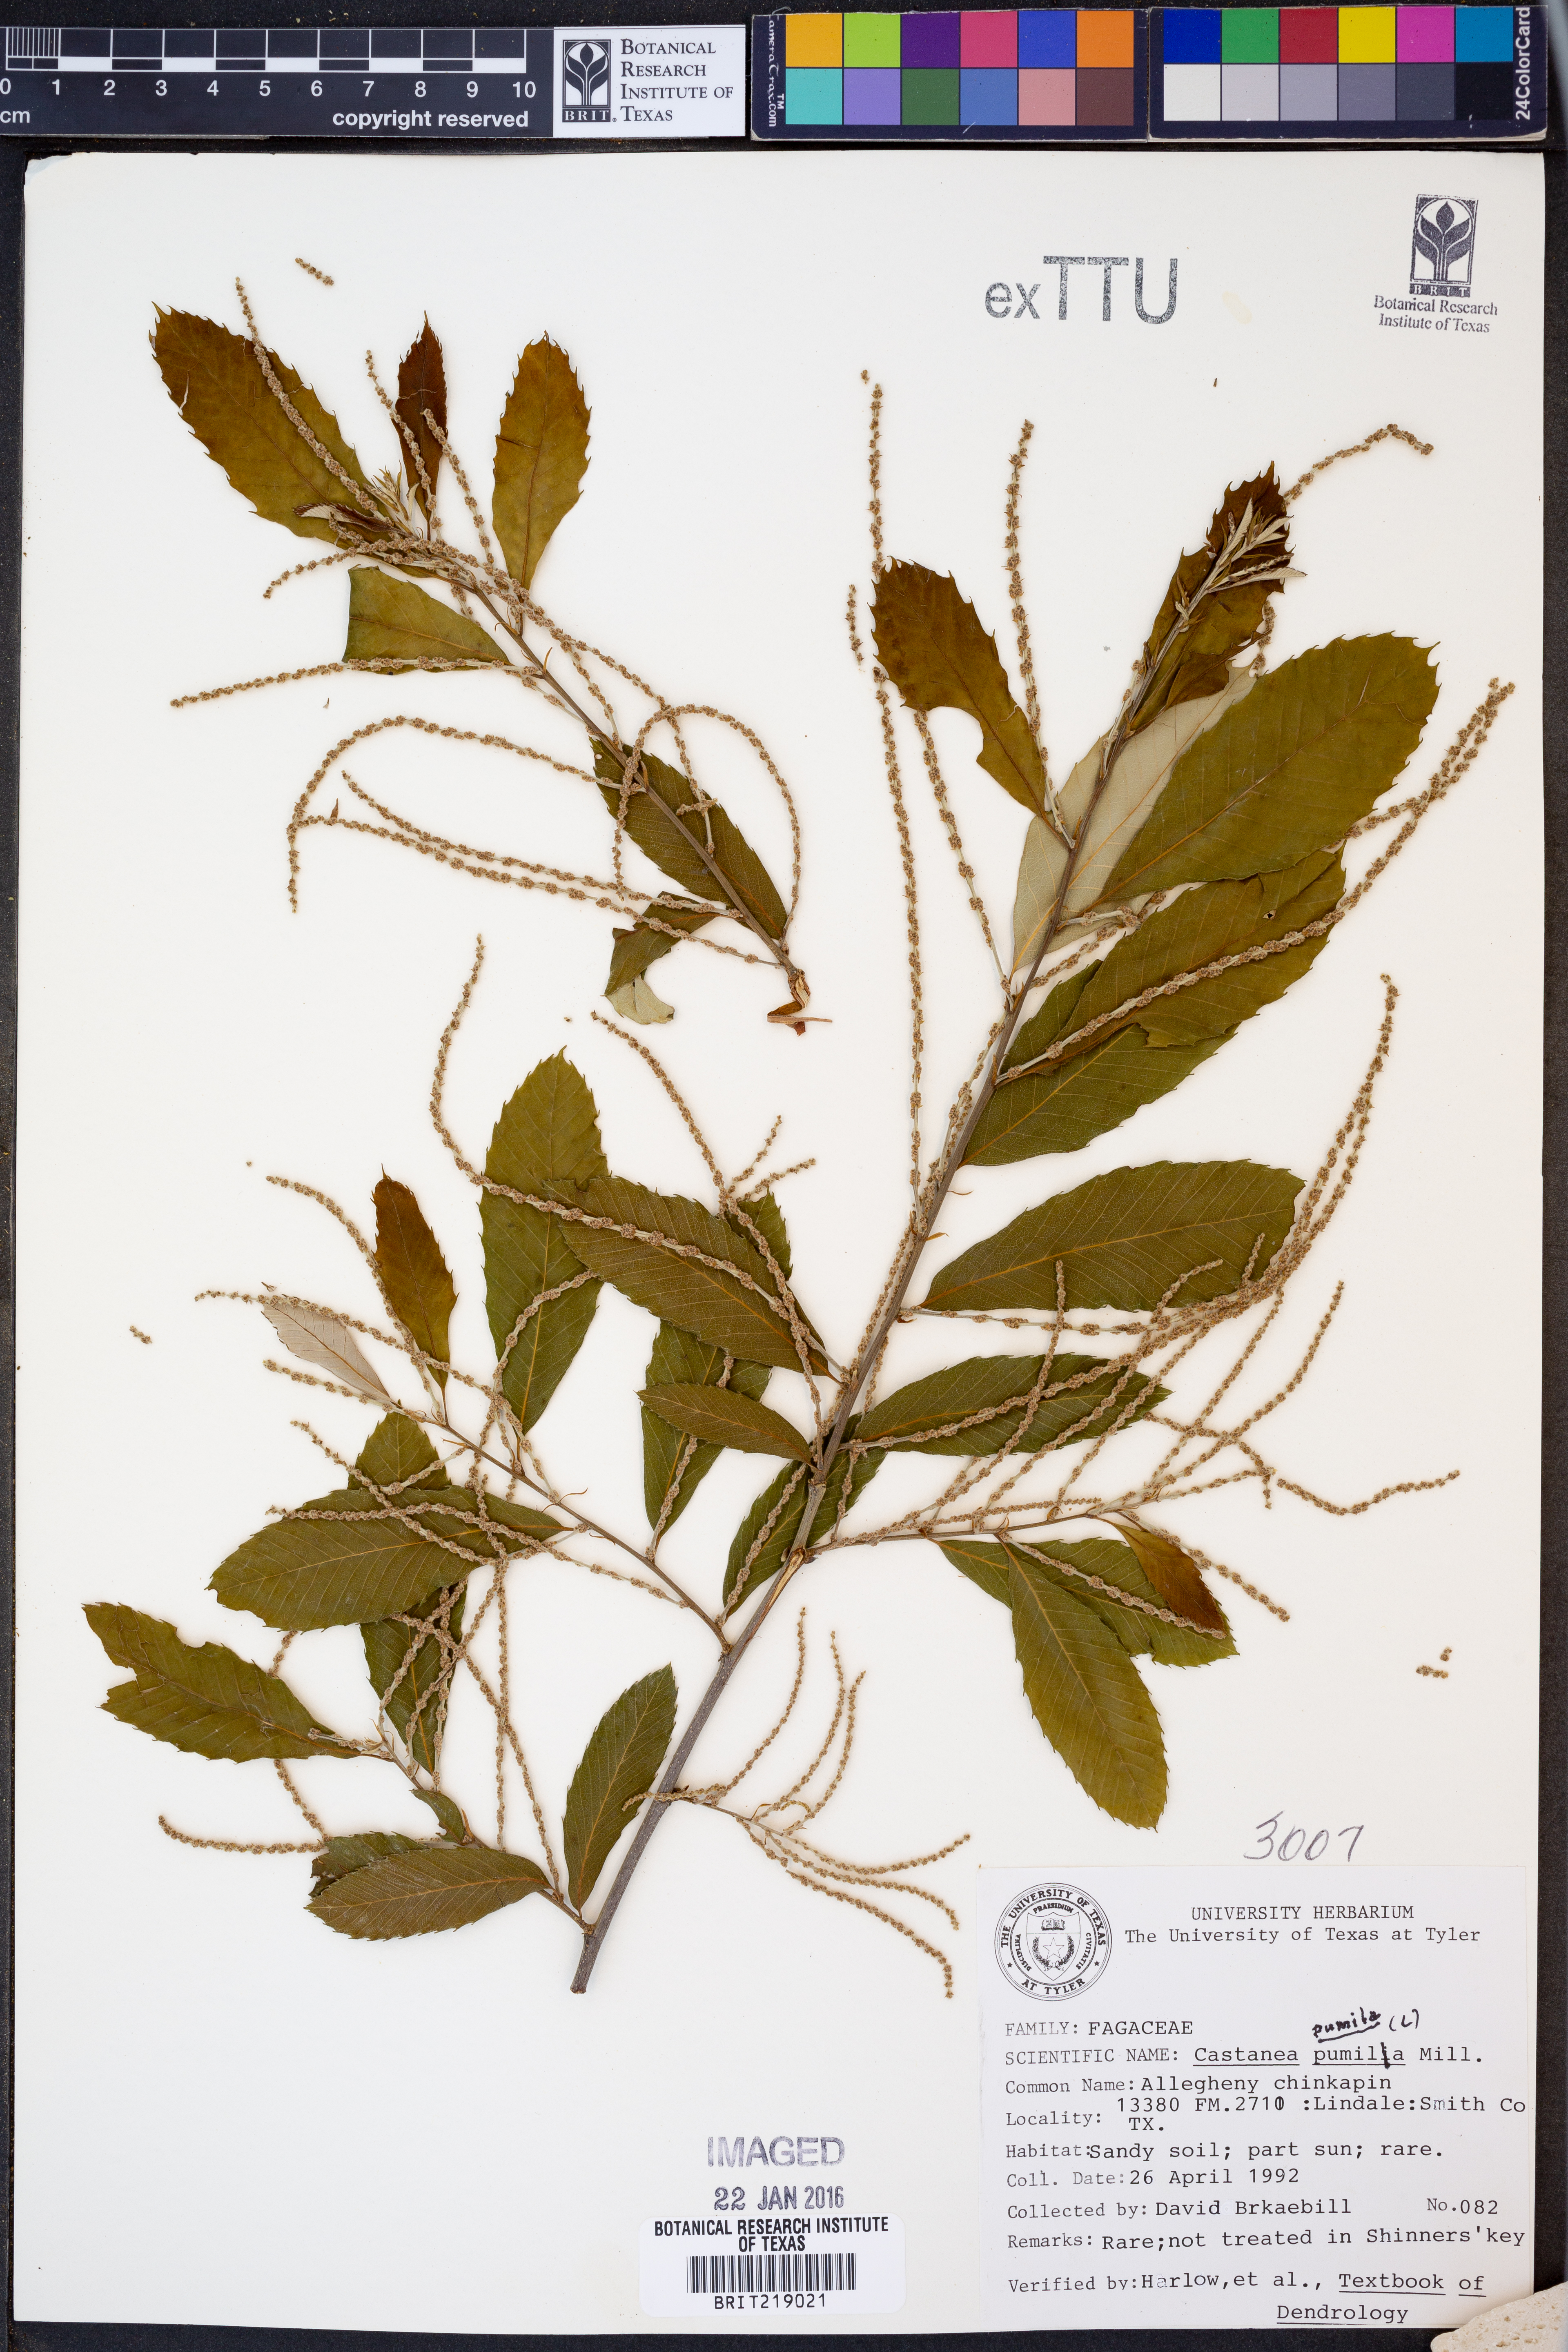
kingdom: Plantae
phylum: Tracheophyta
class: Magnoliopsida
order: Fagales
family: Fagaceae
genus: Castanea
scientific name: Castanea pumila
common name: Chinkapin
